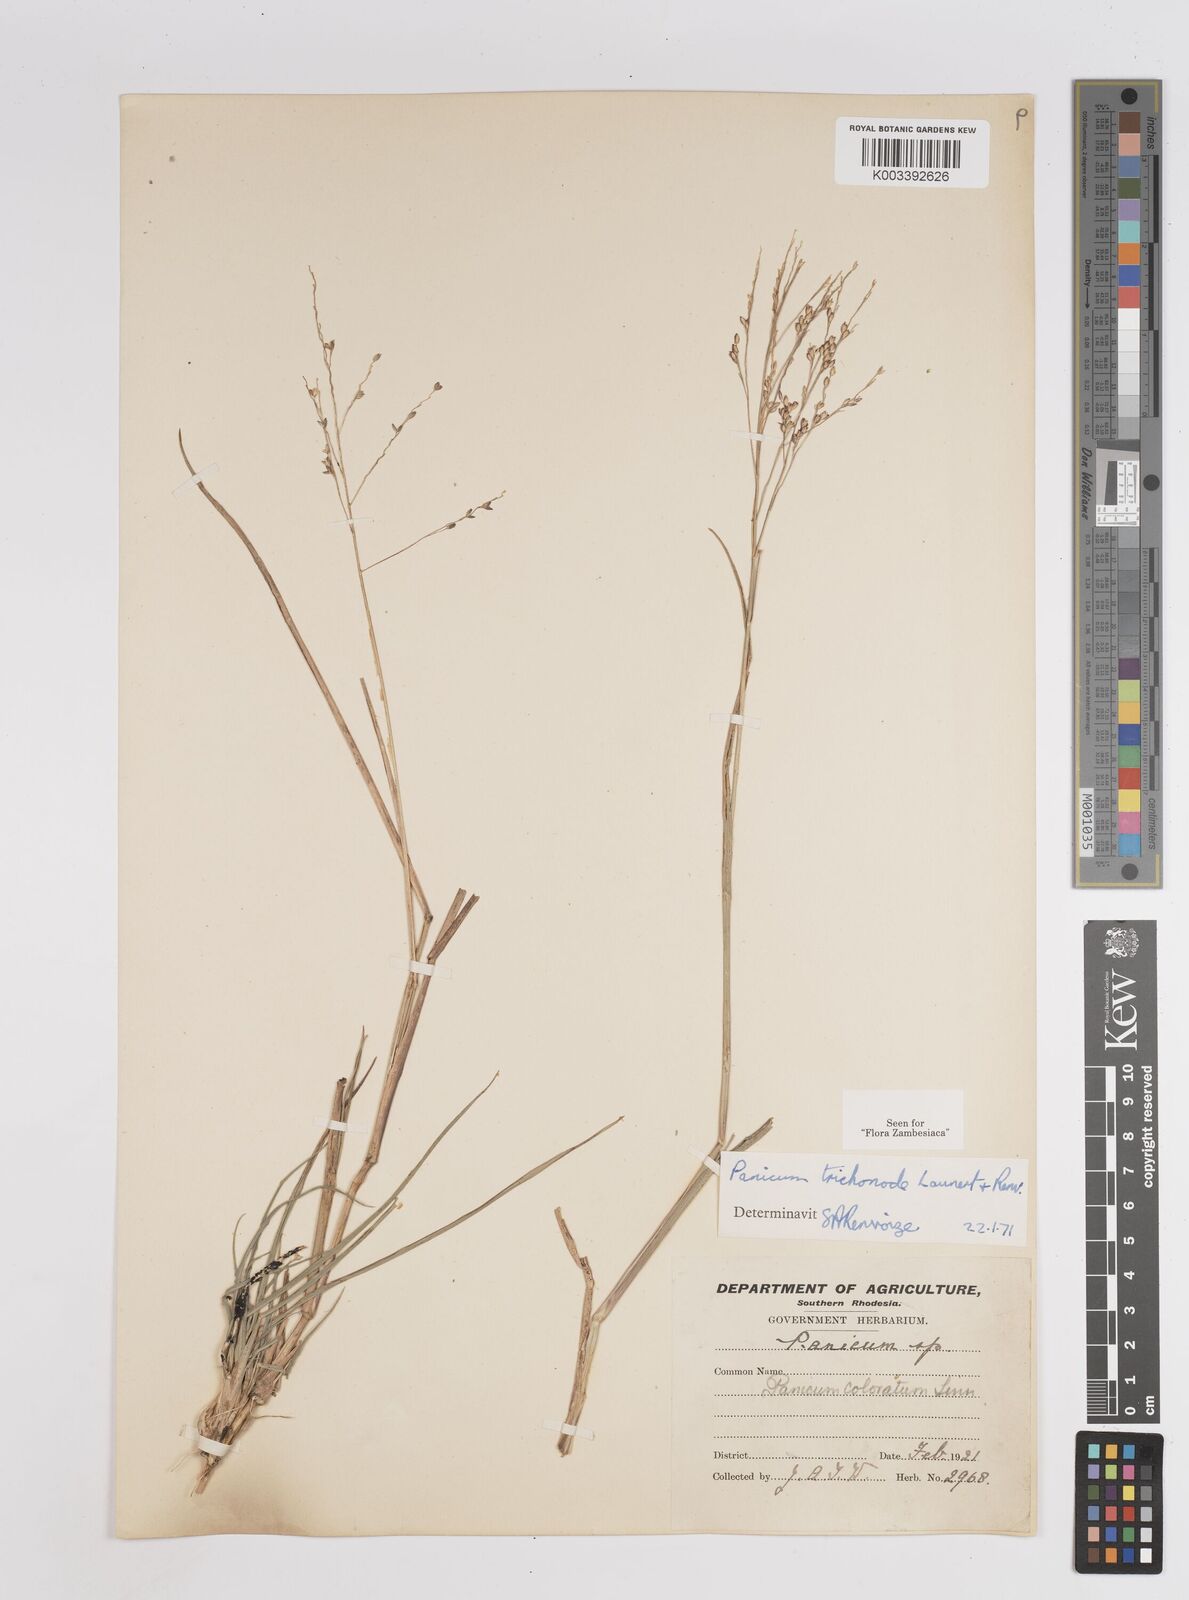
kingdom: Plantae
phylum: Tracheophyta
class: Liliopsida
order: Poales
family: Poaceae
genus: Panicum
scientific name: Panicum trichonode
